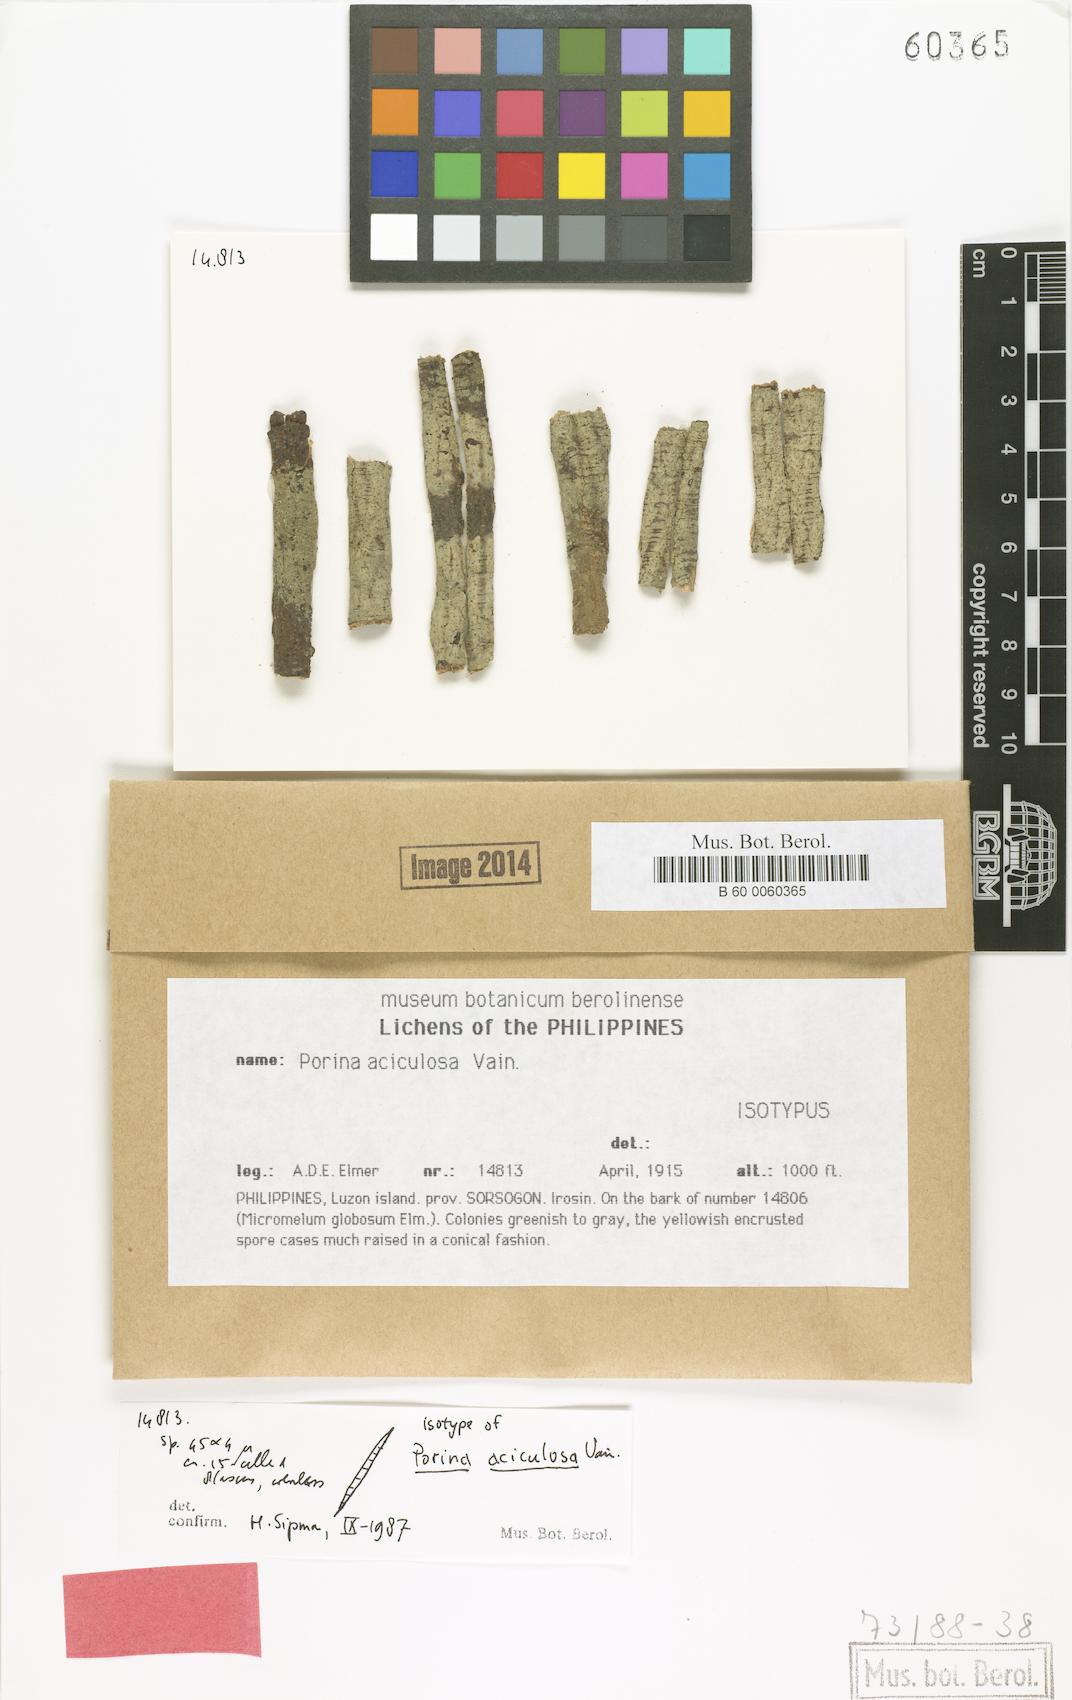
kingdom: Fungi
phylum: Ascomycota
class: Lecanoromycetes
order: Ostropales
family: Porinaceae
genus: Porina
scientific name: Porina
